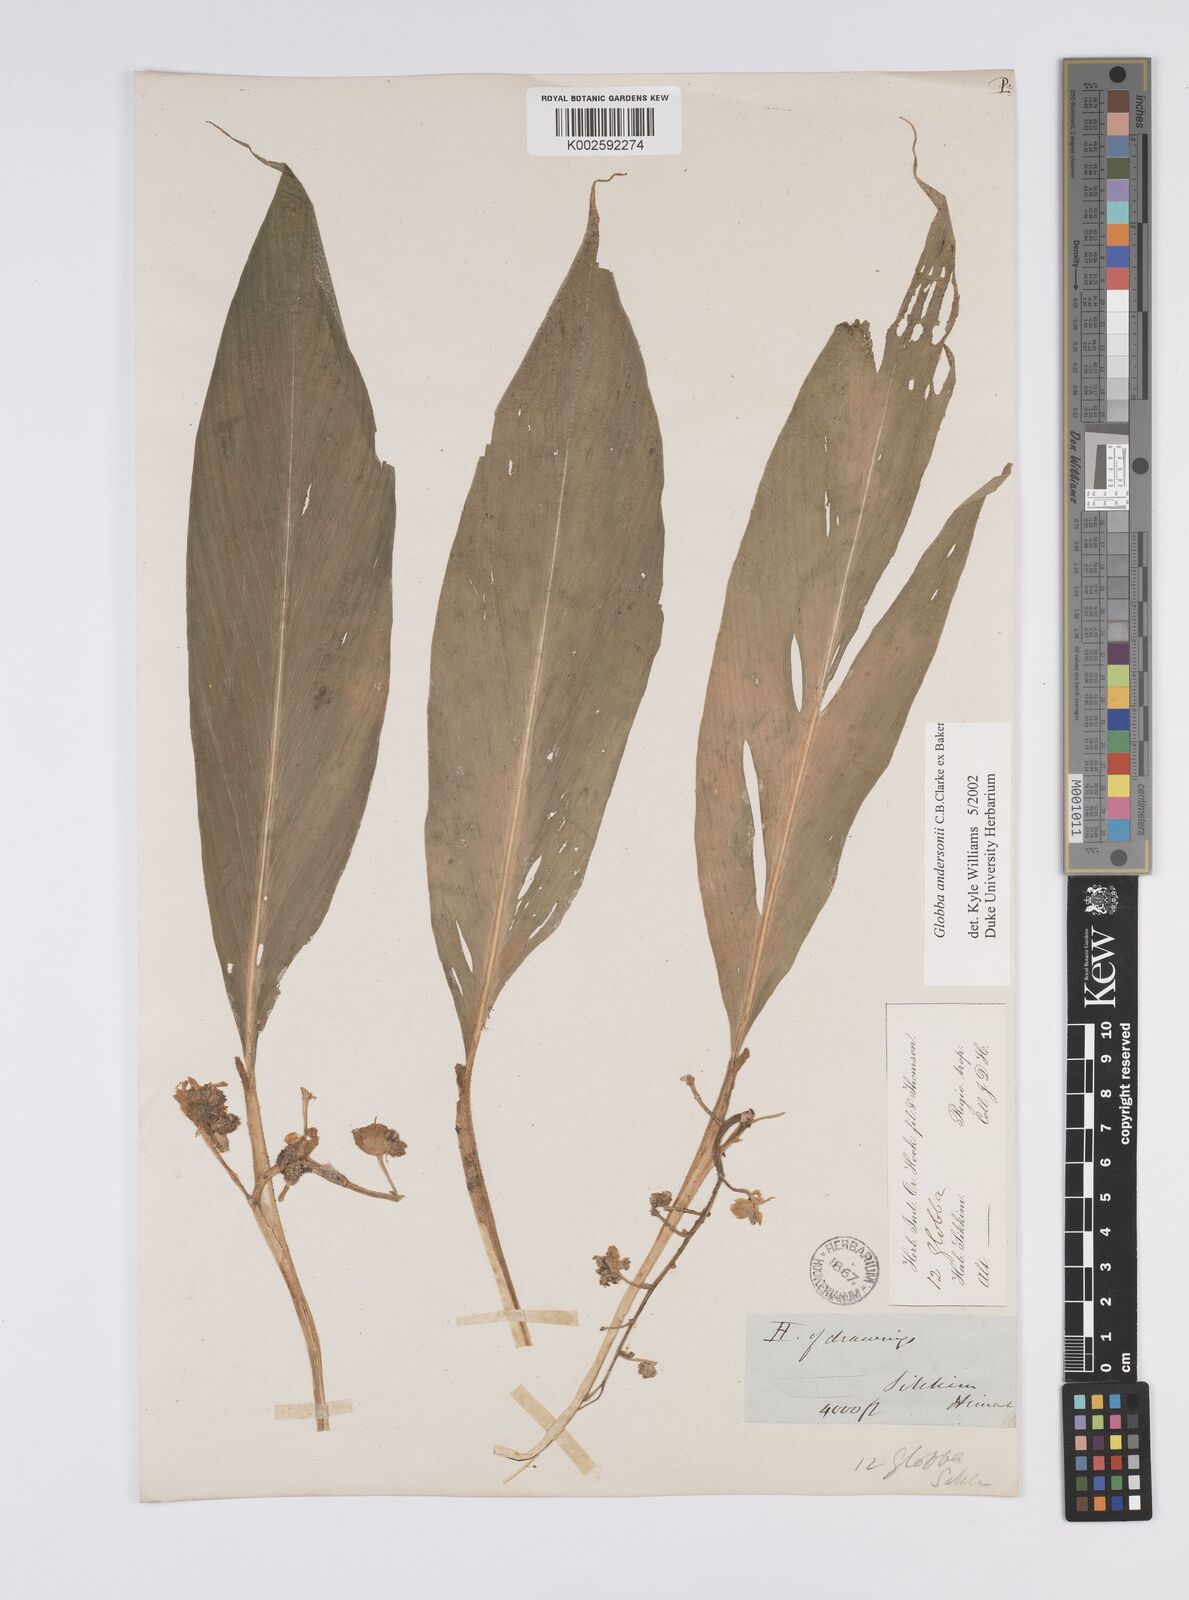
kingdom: Plantae
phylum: Tracheophyta
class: Liliopsida
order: Zingiberales
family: Zingiberaceae
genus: Globba
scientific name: Globba andersonii
